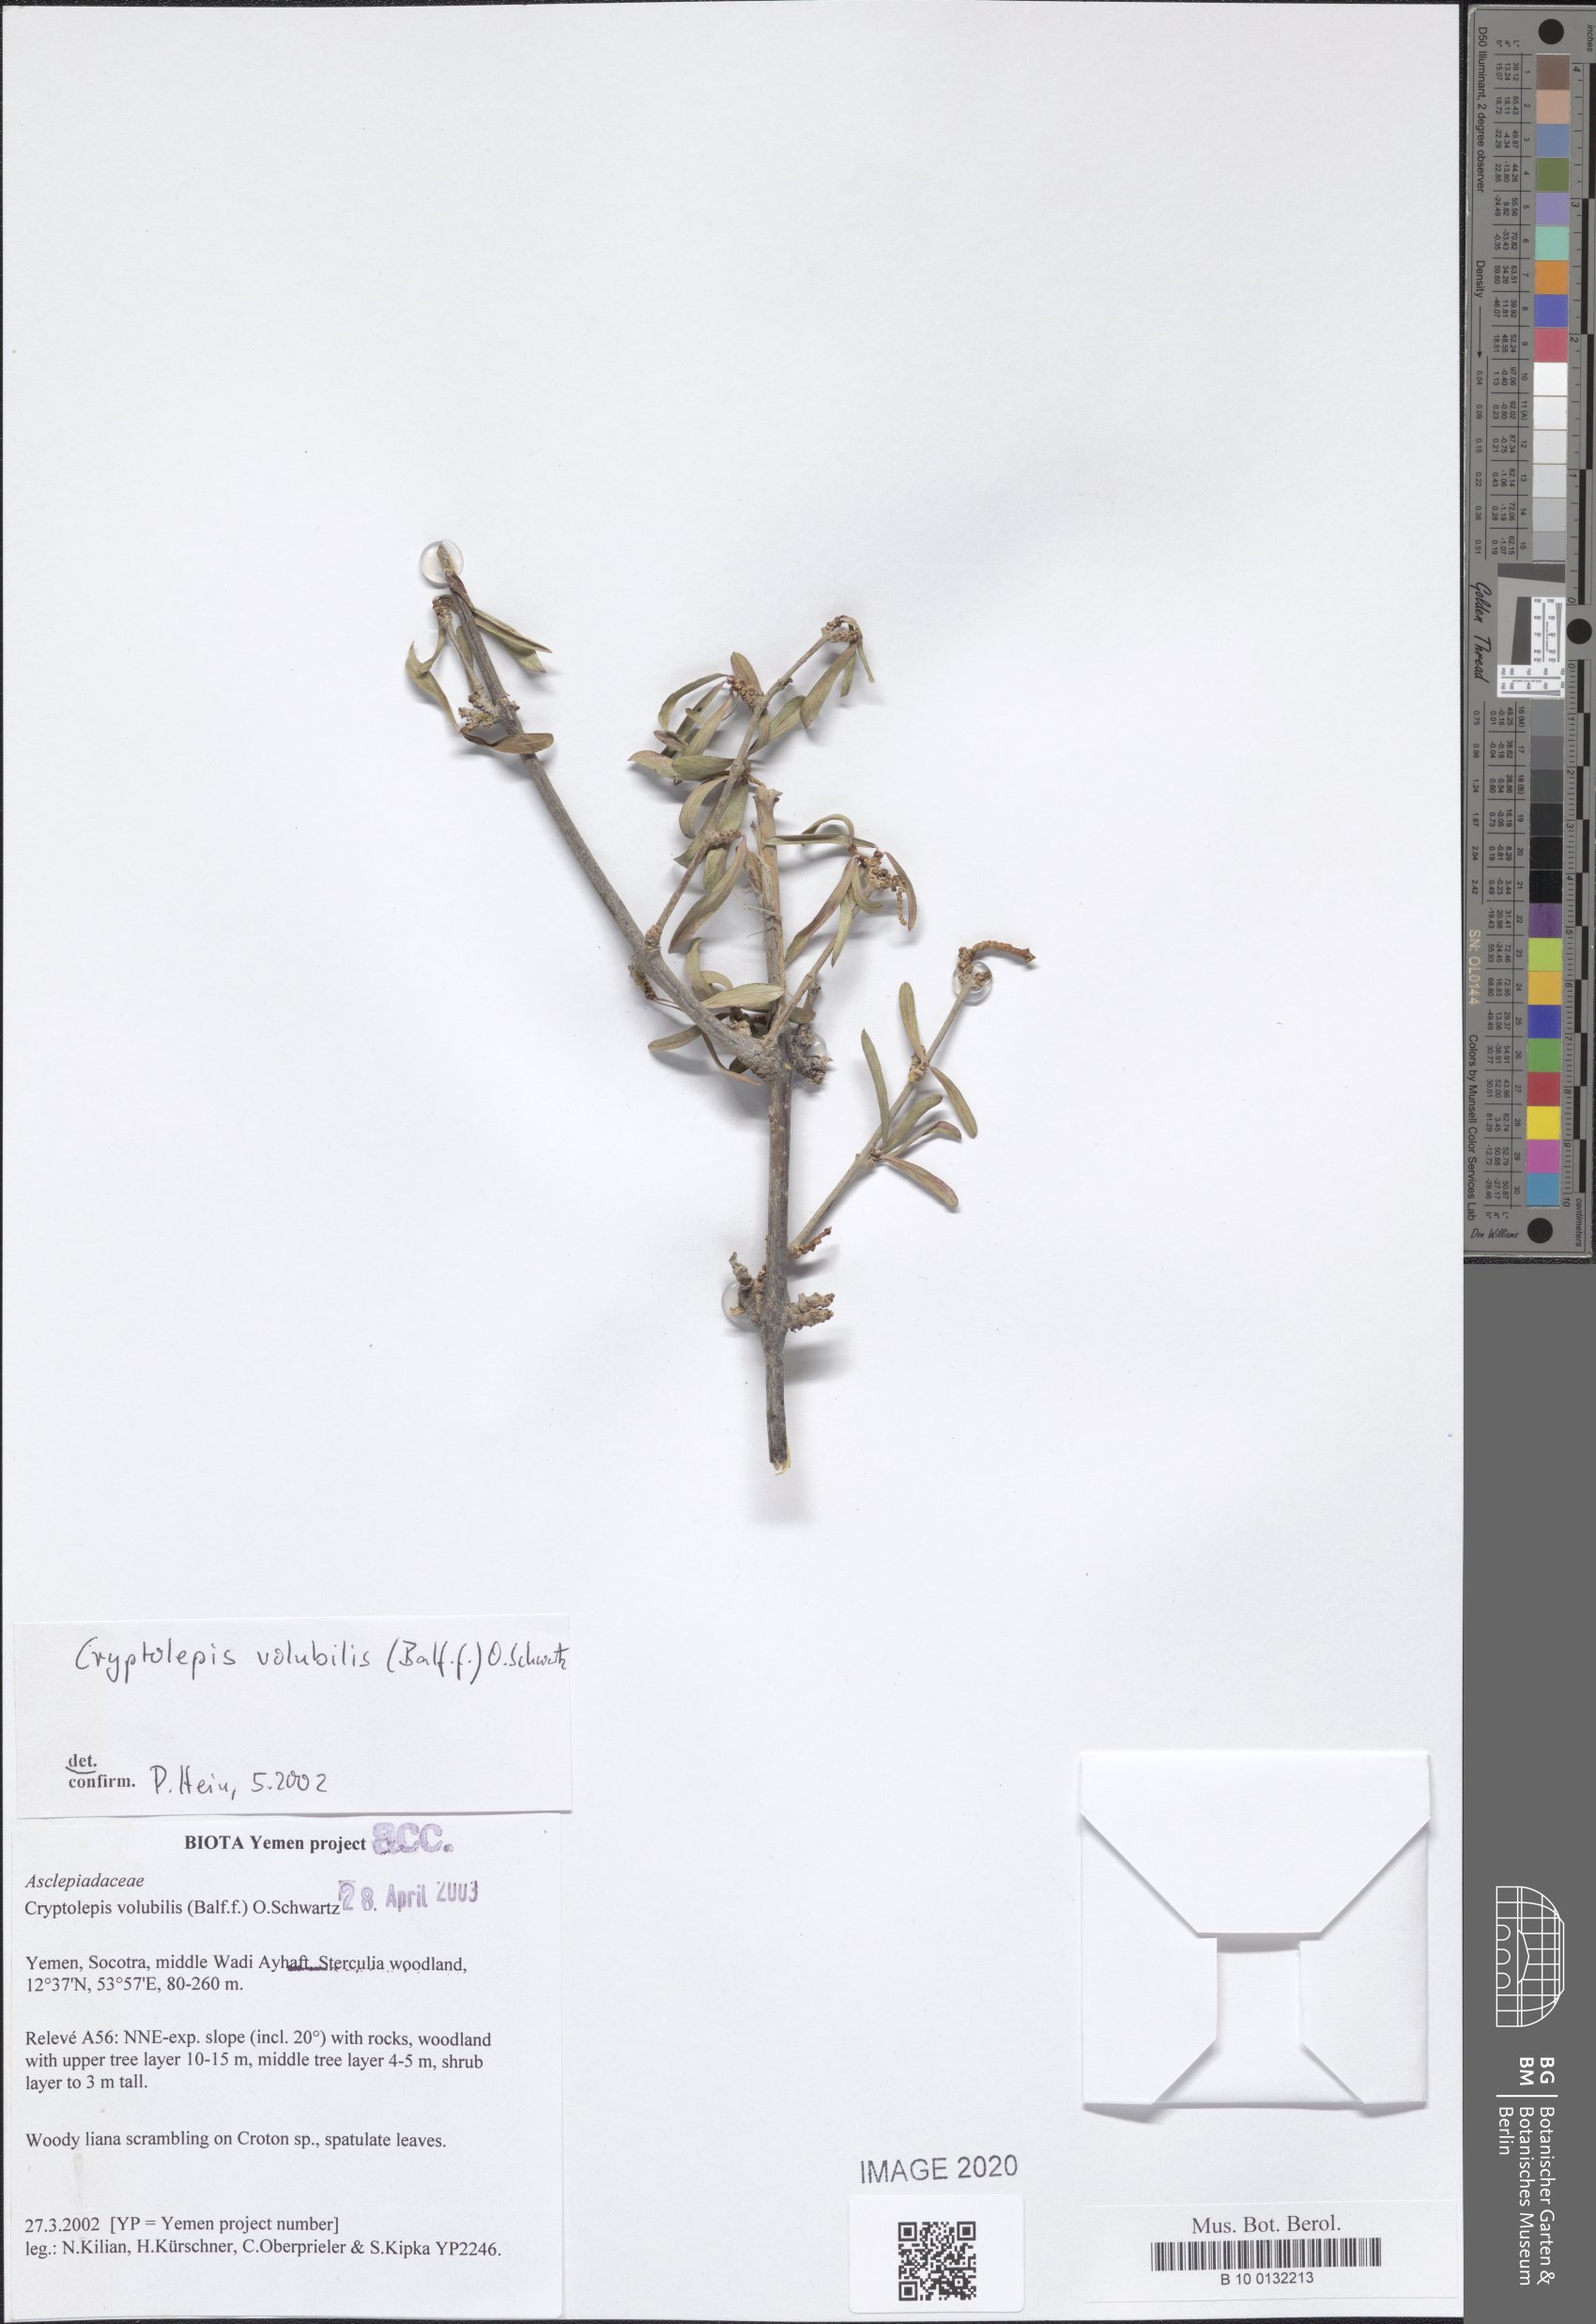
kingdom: Plantae
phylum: Tracheophyta
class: Magnoliopsida
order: Gentianales
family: Apocynaceae
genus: Cryptolepis
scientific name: Cryptolepis volubilis
